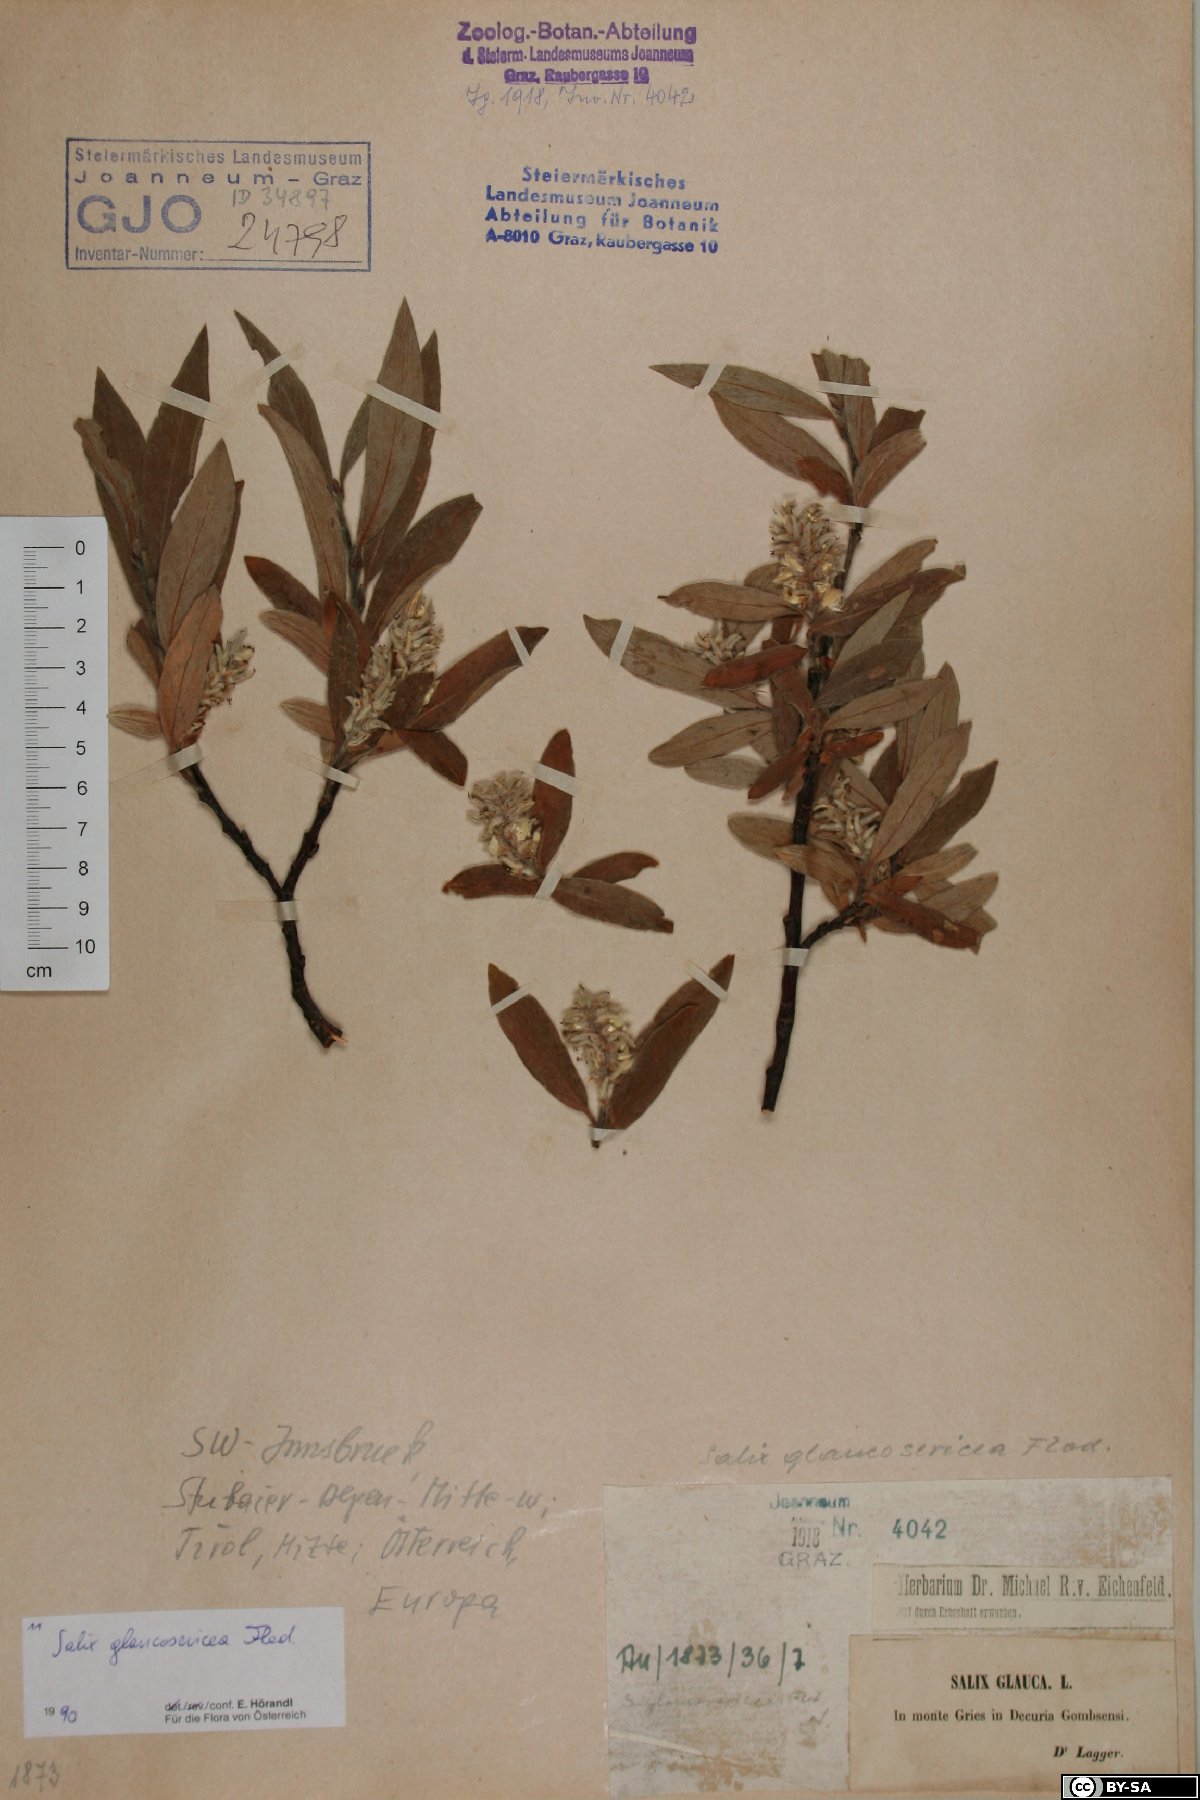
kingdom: Plantae
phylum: Tracheophyta
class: Magnoliopsida
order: Malpighiales
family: Salicaceae
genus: Salix
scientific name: Salix glaucosericea
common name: Alpine gray willow
